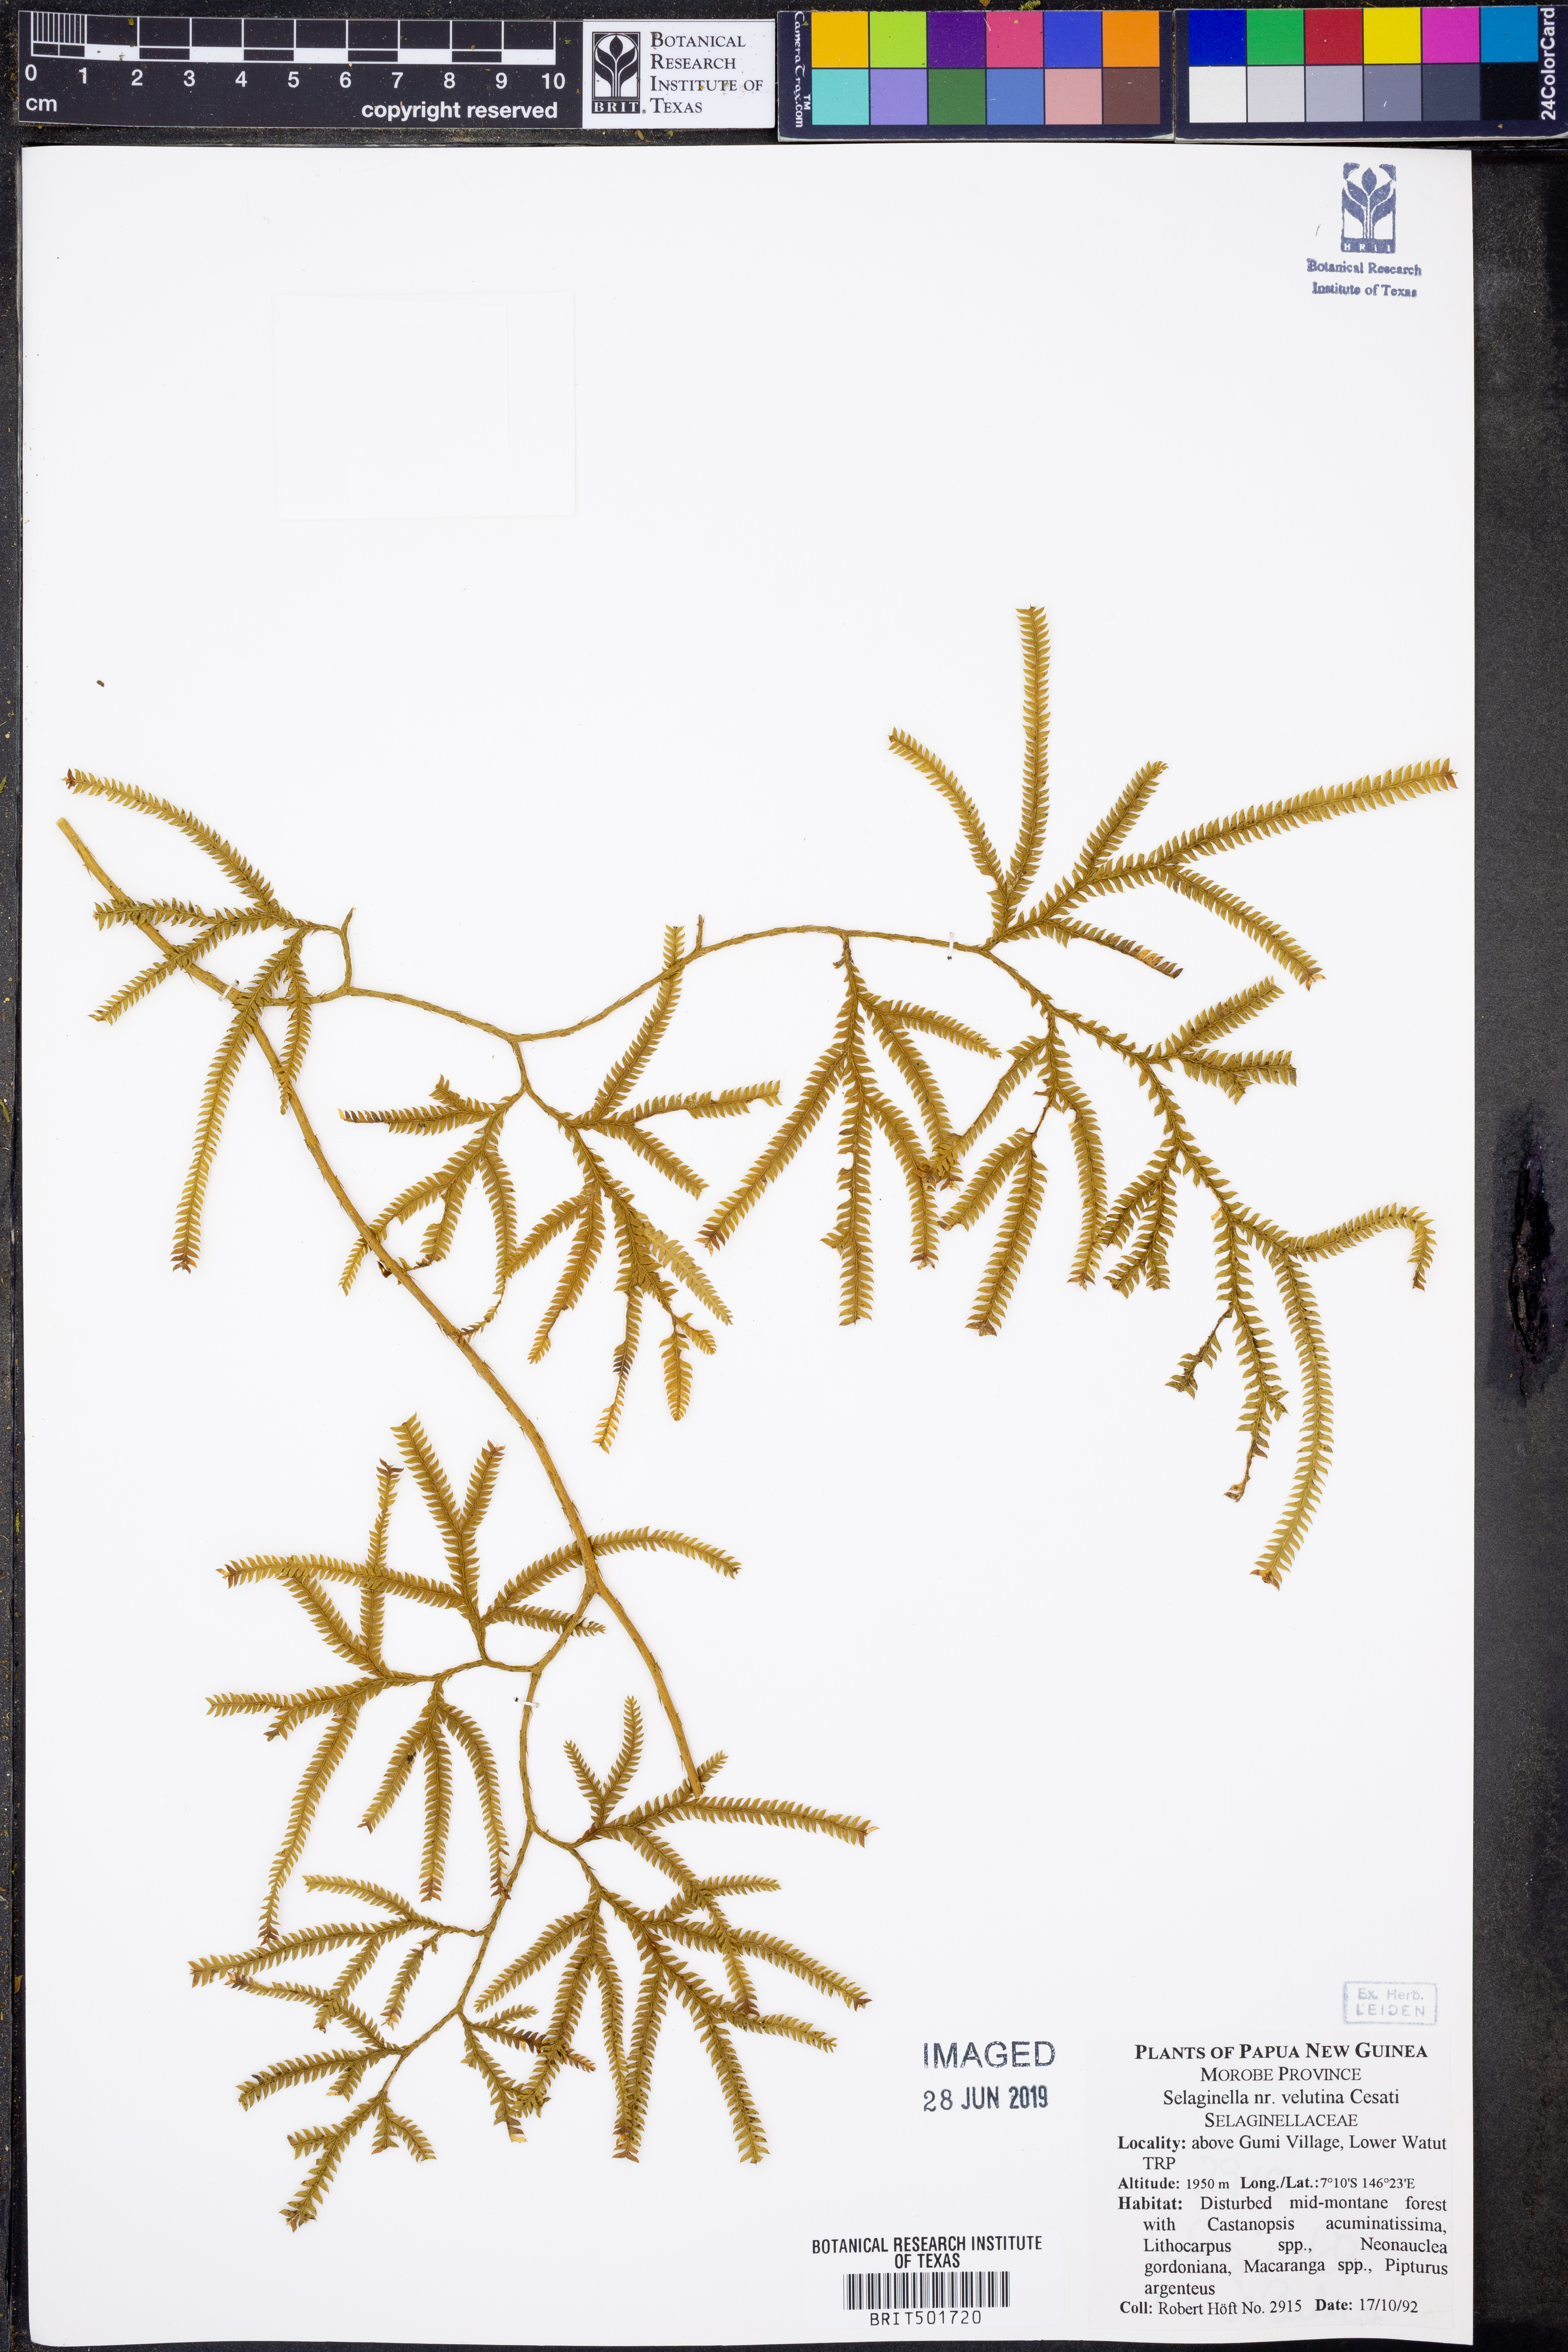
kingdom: Plantae
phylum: Tracheophyta
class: Lycopodiopsida
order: Selaginellales
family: Selaginellaceae
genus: Selaginella
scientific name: Selaginella velutina
